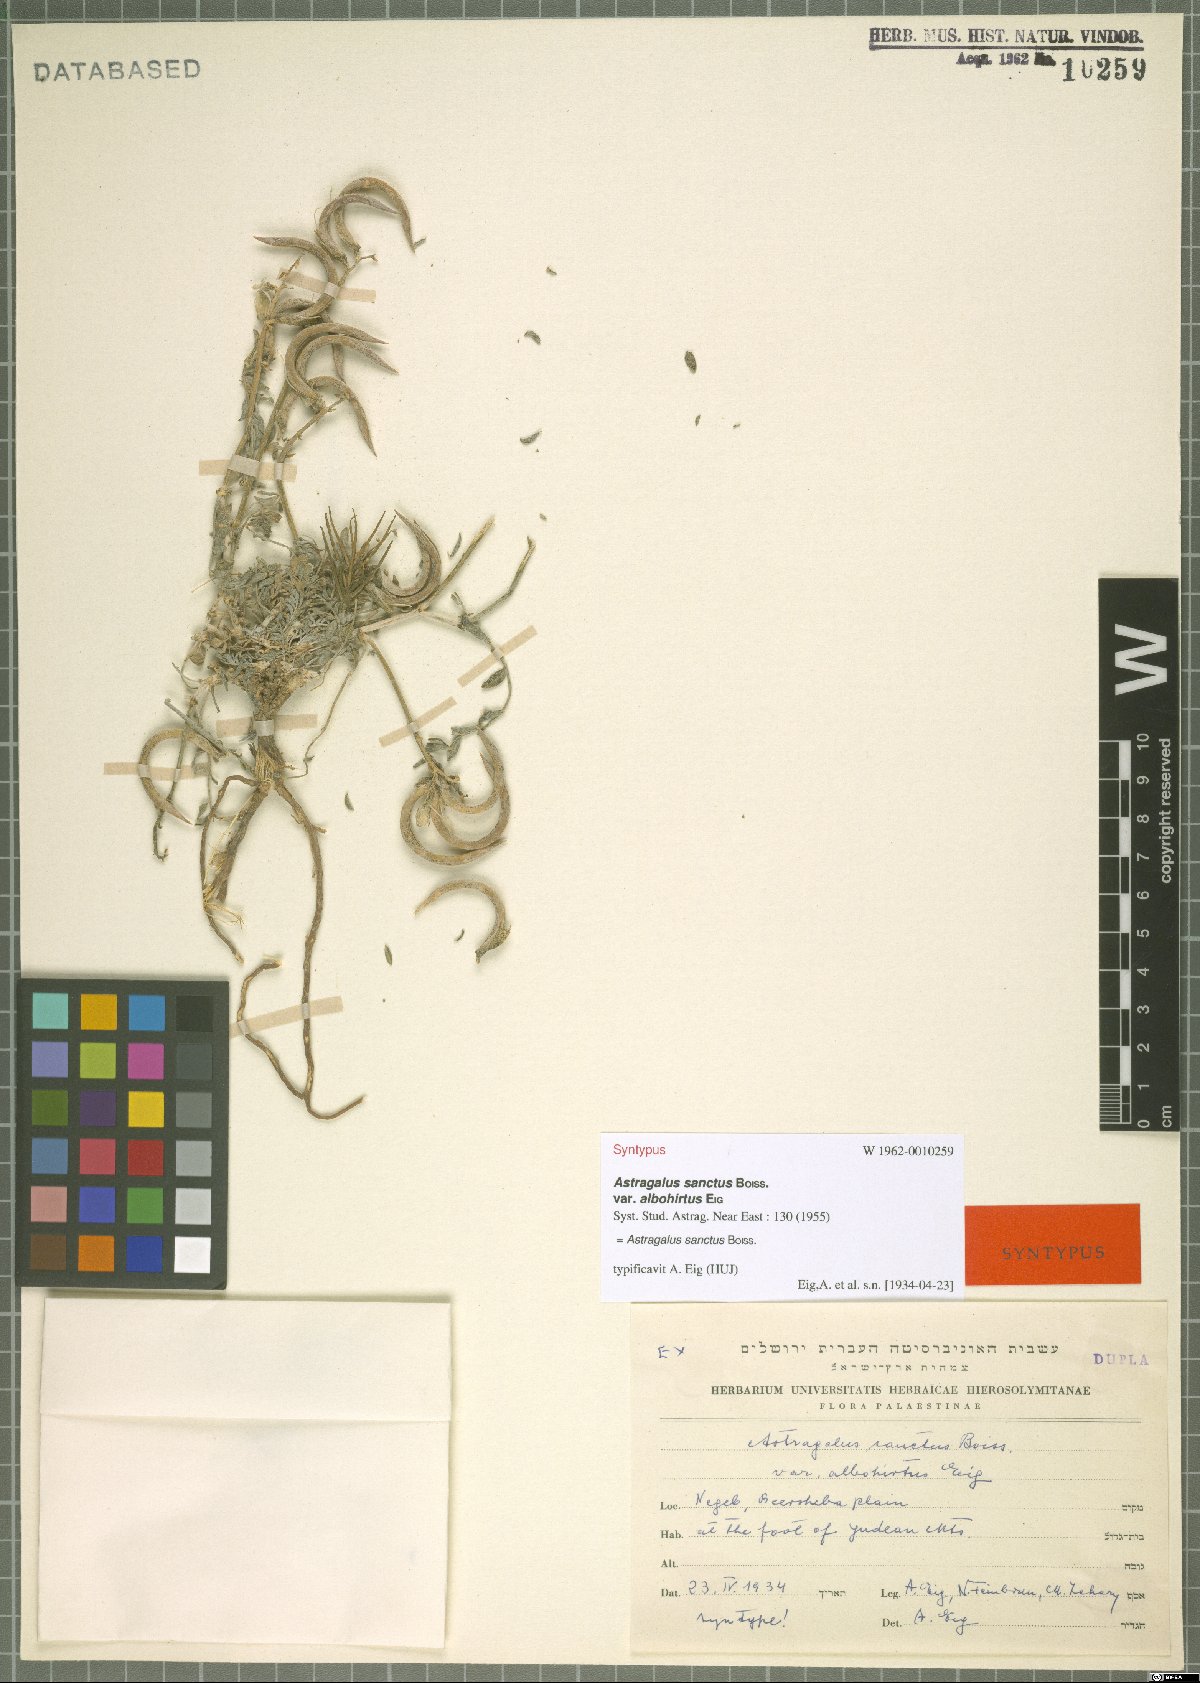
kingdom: Plantae
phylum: Tracheophyta
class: Magnoliopsida
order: Fabales
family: Fabaceae
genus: Astragalus
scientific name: Astragalus sanctus
